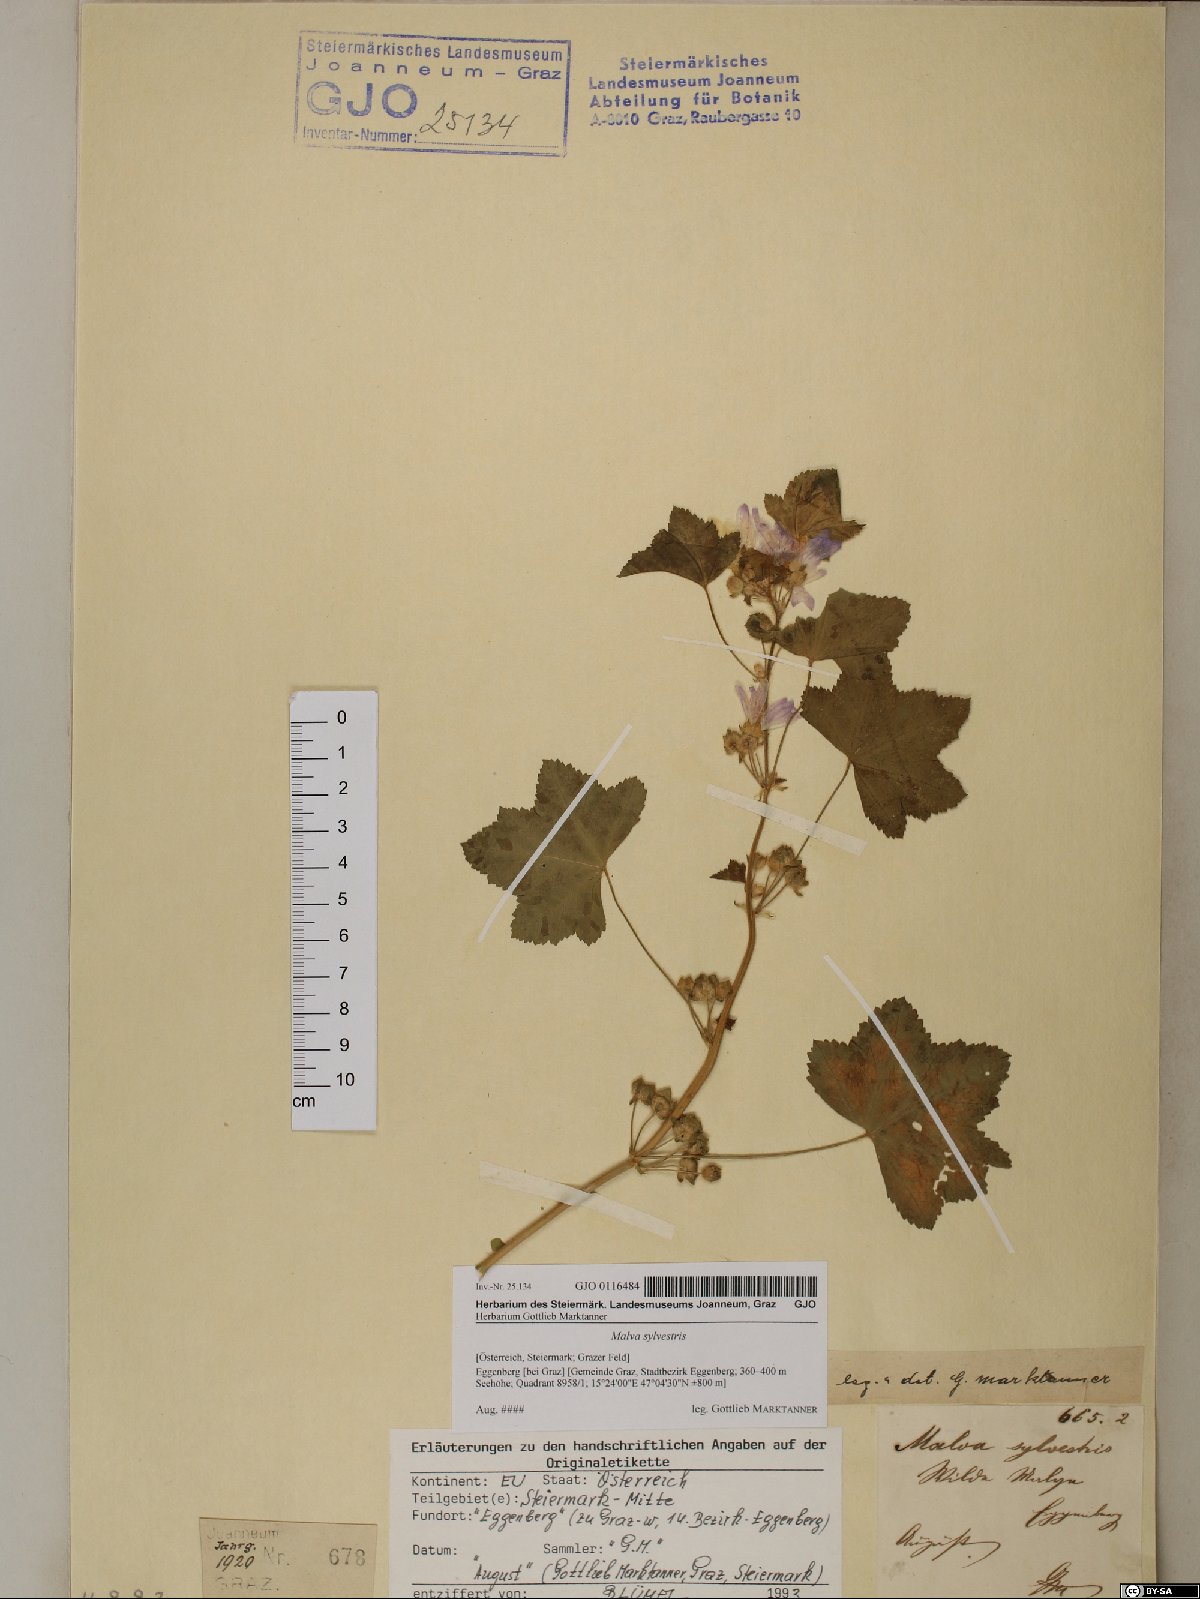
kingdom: Plantae
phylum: Tracheophyta
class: Magnoliopsida
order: Malvales
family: Malvaceae
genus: Malva
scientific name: Malva sylvestris
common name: Common mallow
